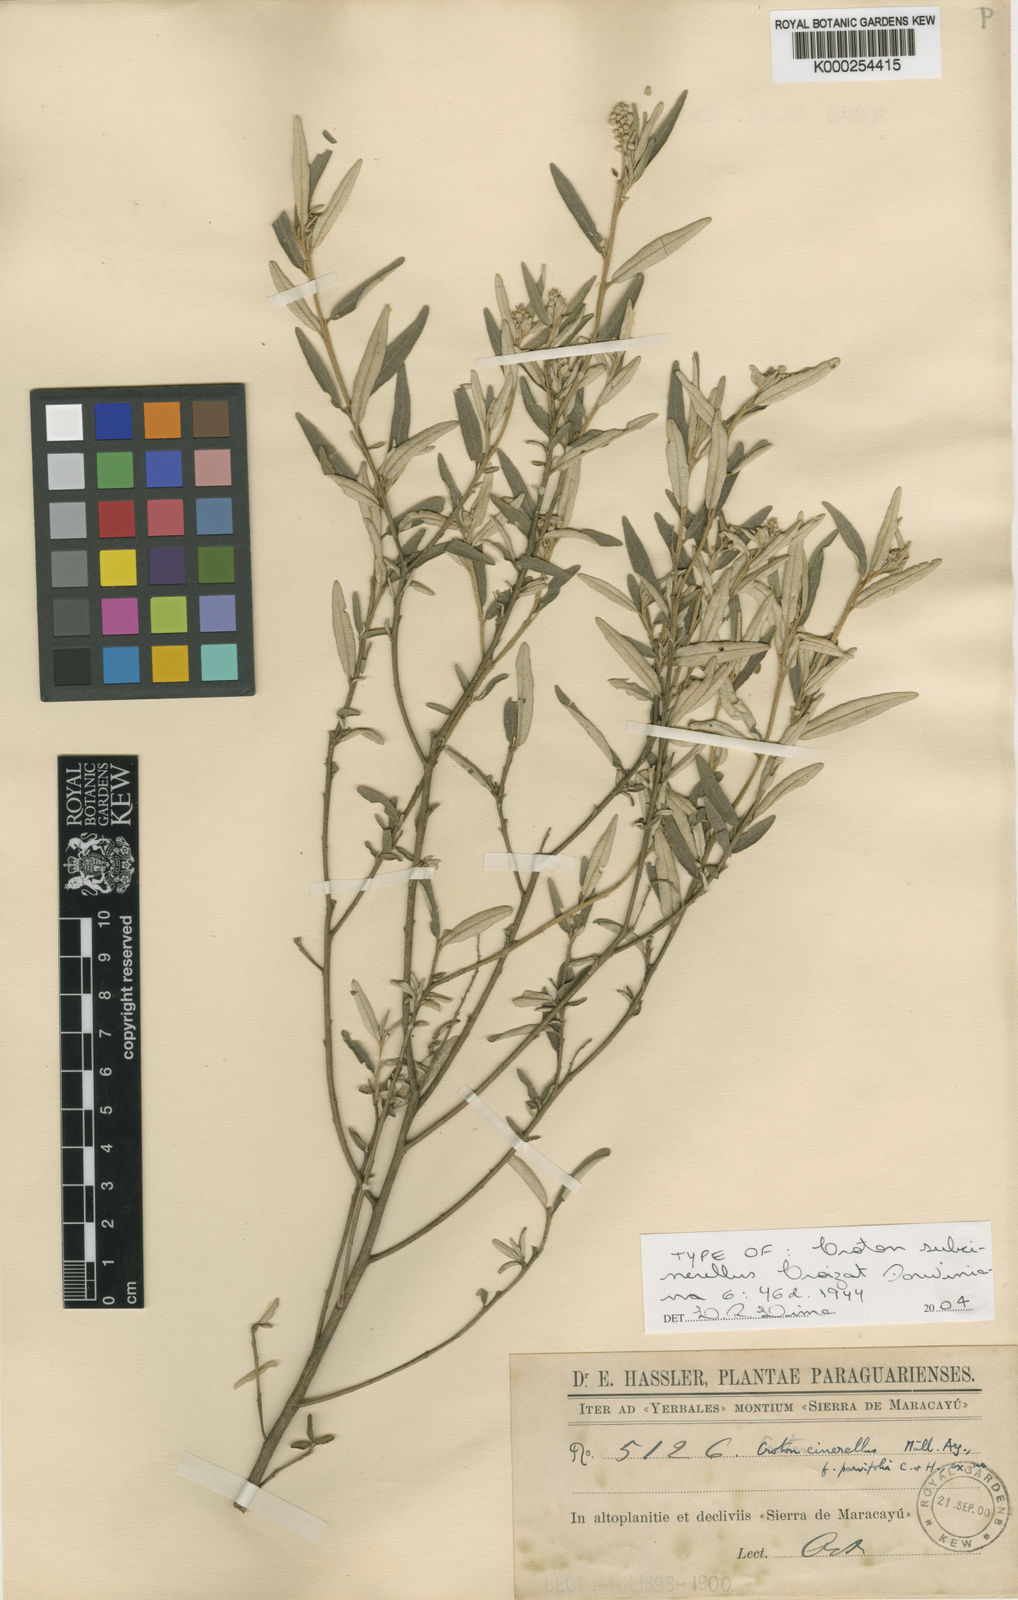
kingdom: Plantae
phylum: Tracheophyta
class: Magnoliopsida
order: Malpighiales
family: Euphorbiaceae
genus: Croton
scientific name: Croton subcinerellus
